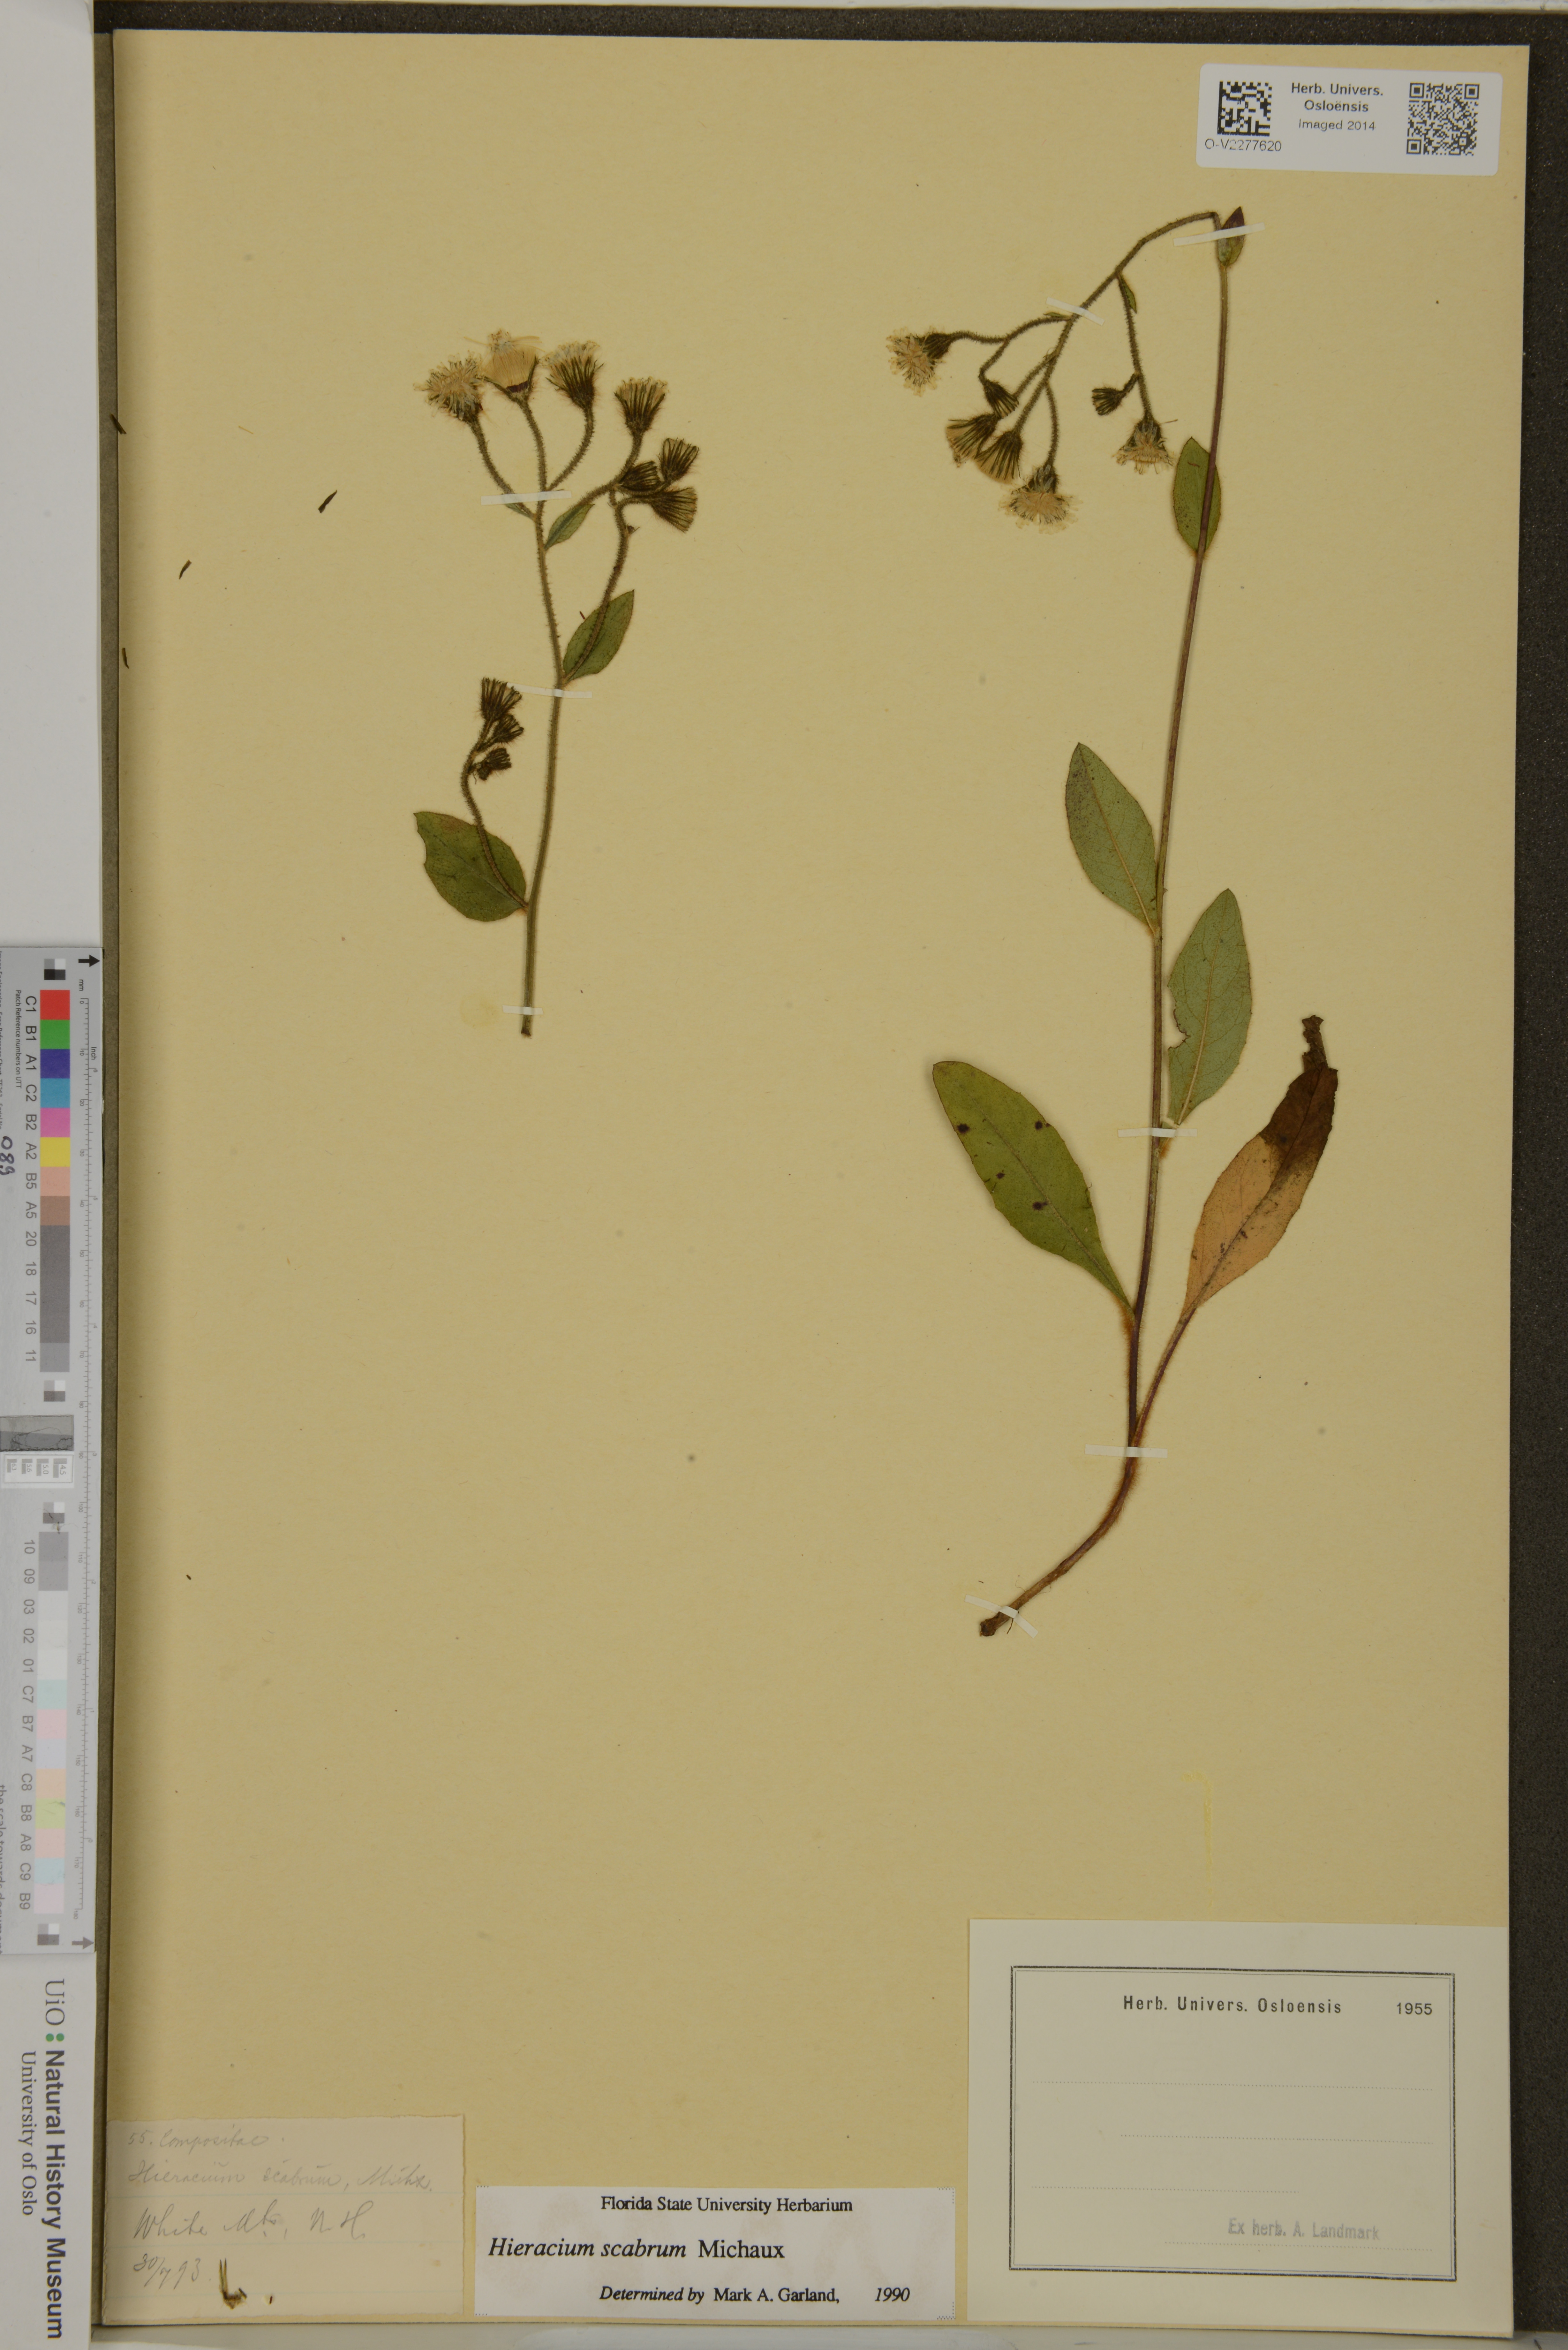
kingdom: Plantae
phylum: Tracheophyta
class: Magnoliopsida
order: Asterales
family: Asteraceae
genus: Hieracium
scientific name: Hieracium scabrum
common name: Rough hawkweed
